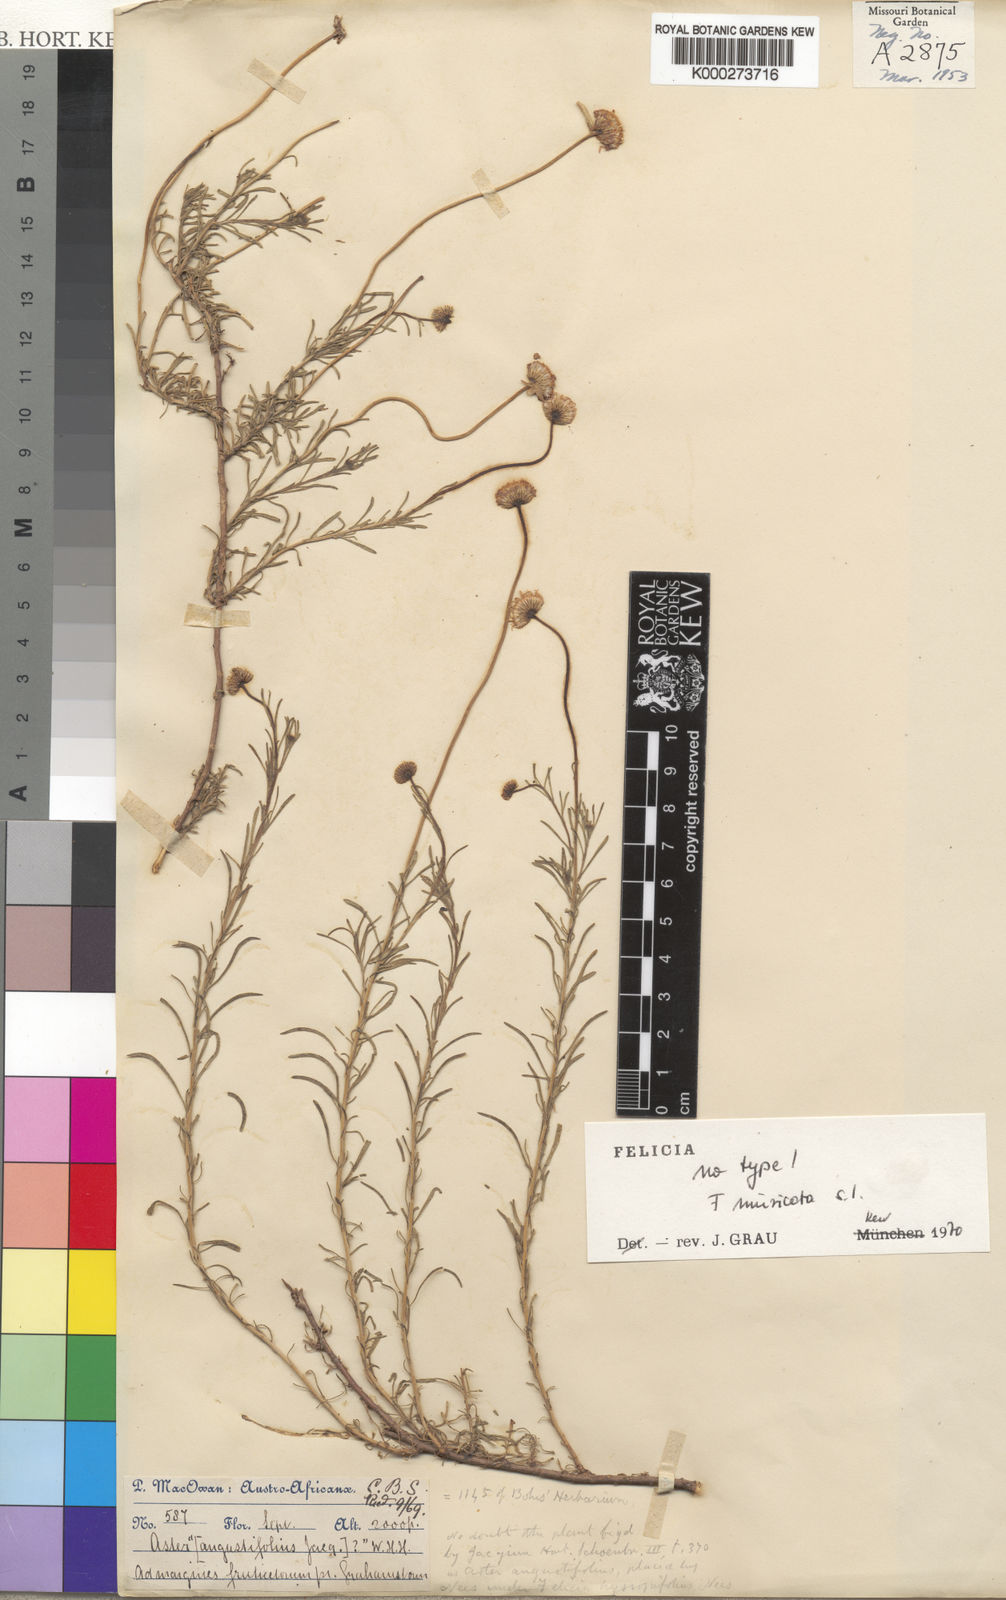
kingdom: Plantae
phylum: Tracheophyta
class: Magnoliopsida
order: Asterales
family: Asteraceae
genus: Felicia
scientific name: Felicia muricata
